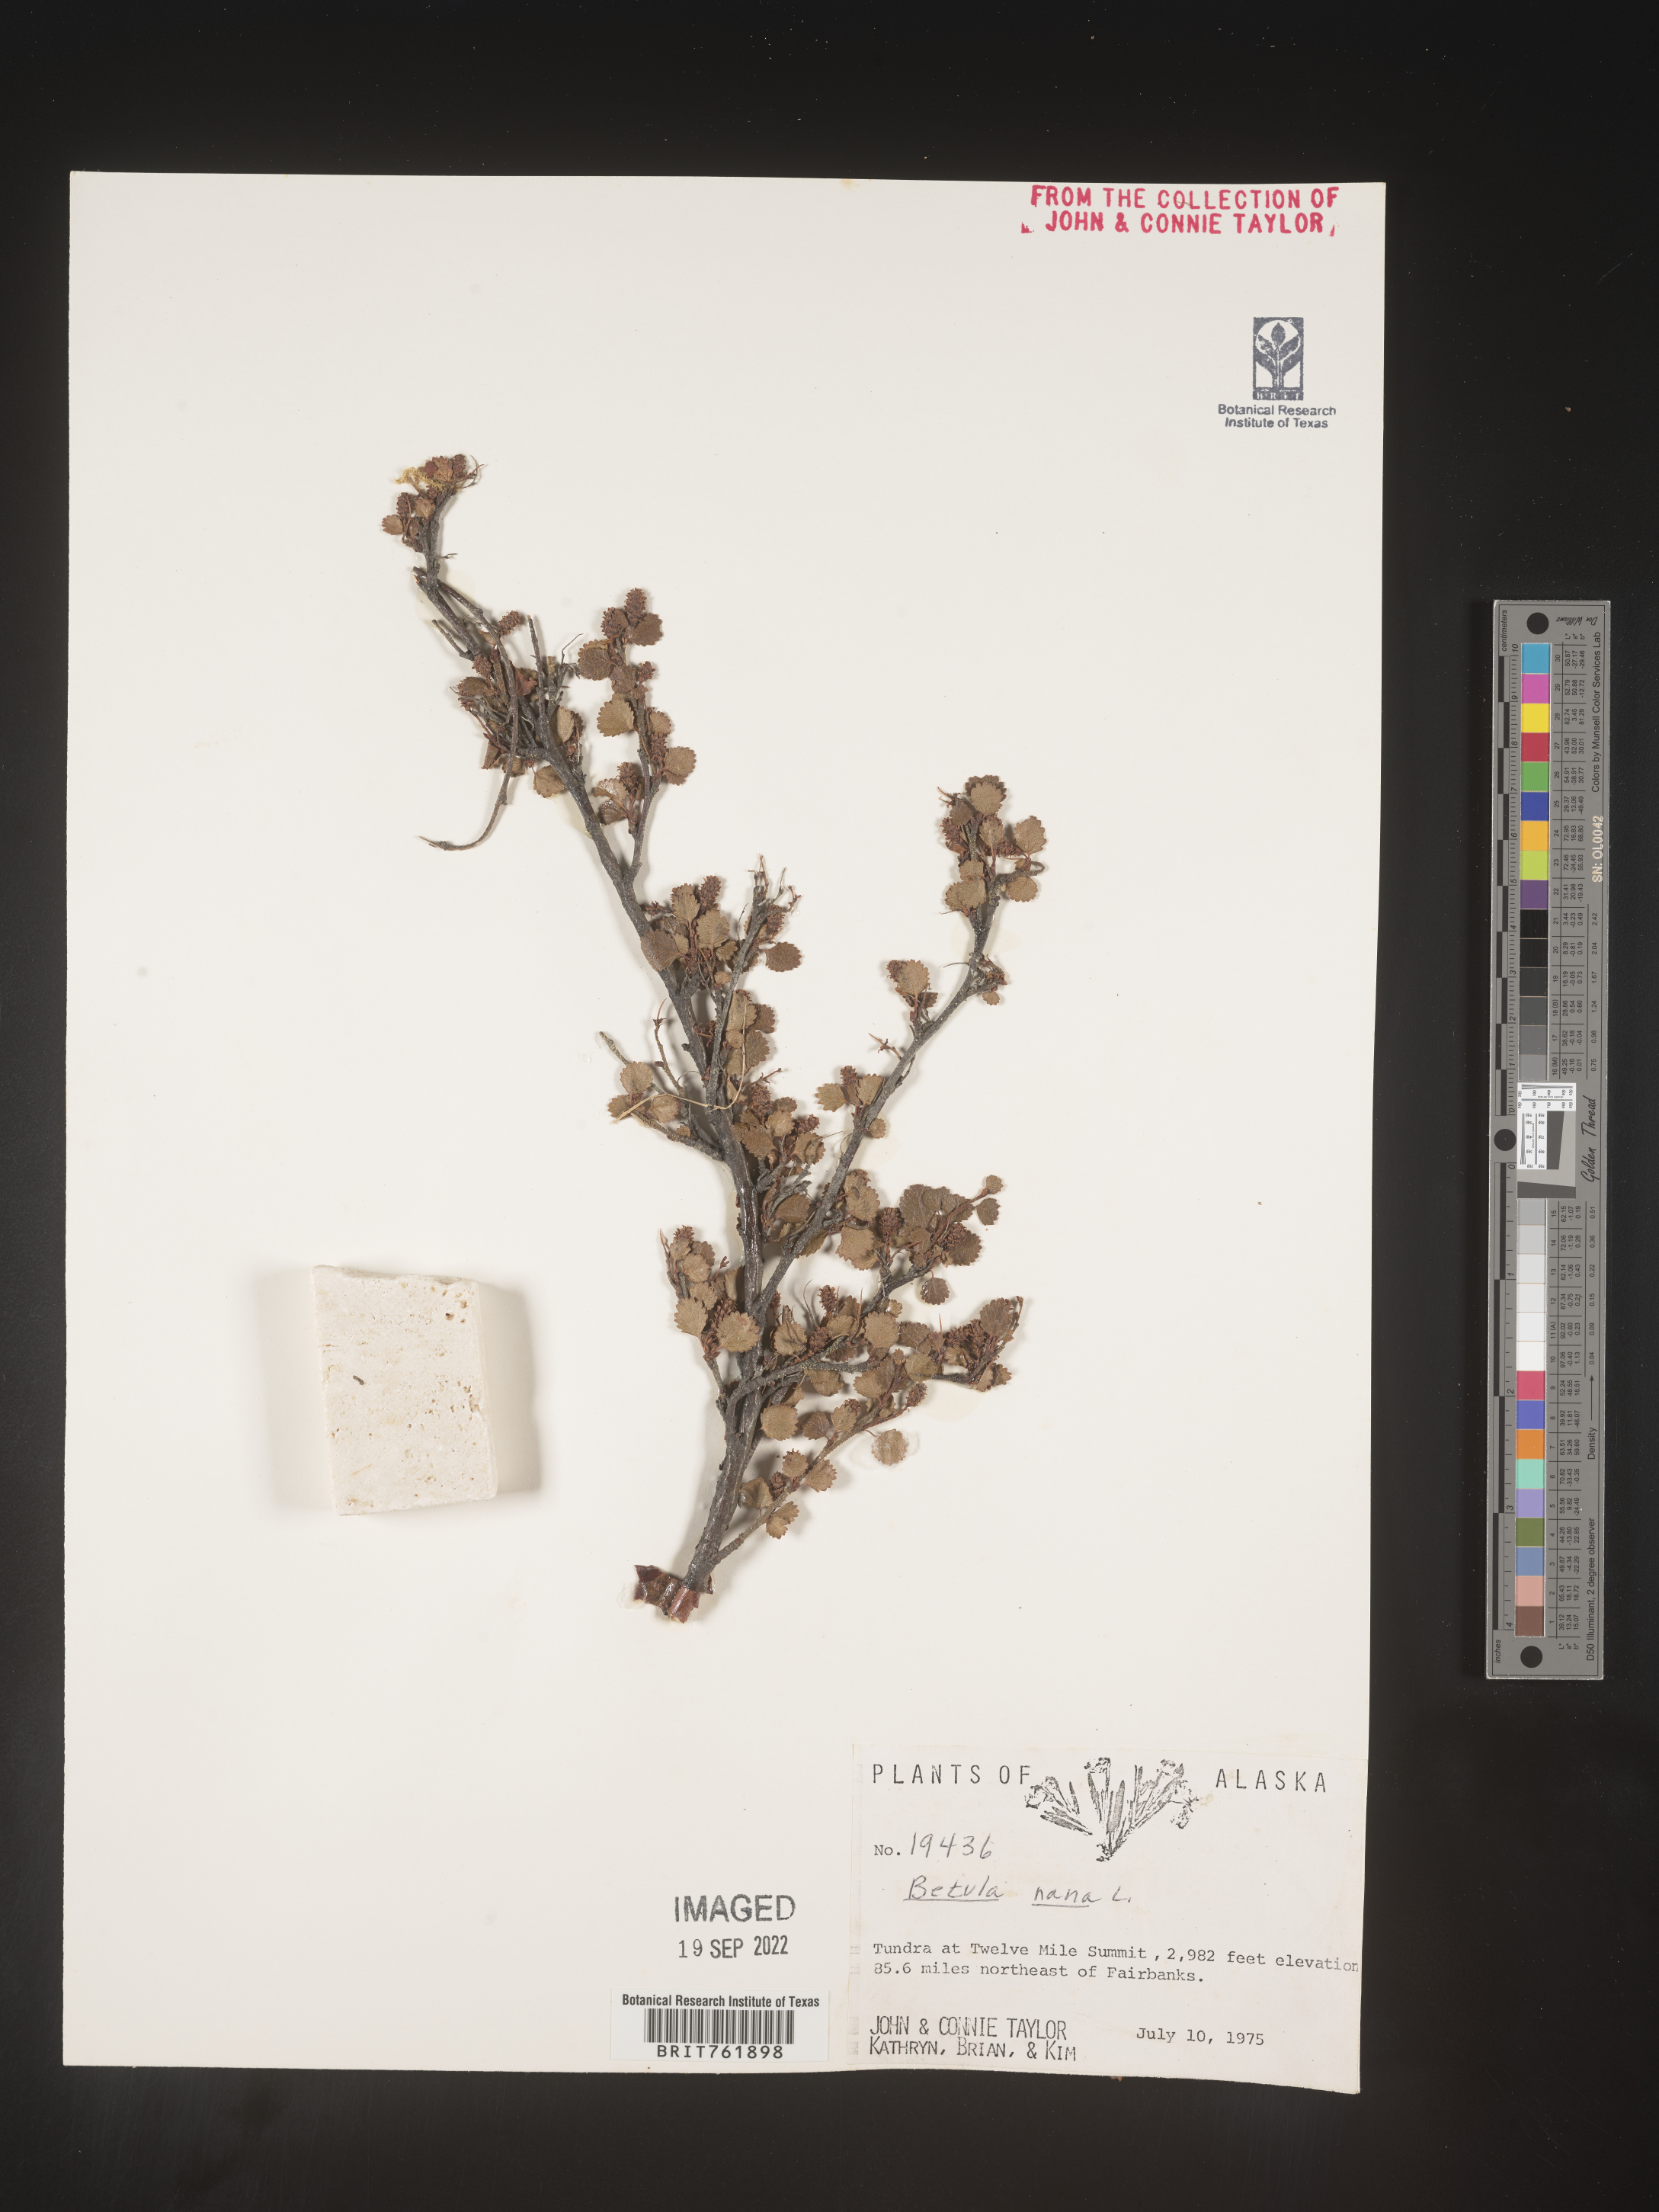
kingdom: Plantae
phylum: Tracheophyta
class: Magnoliopsida
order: Fagales
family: Betulaceae
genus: Betula
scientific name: Betula nana
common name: Arctic dwarf birch
